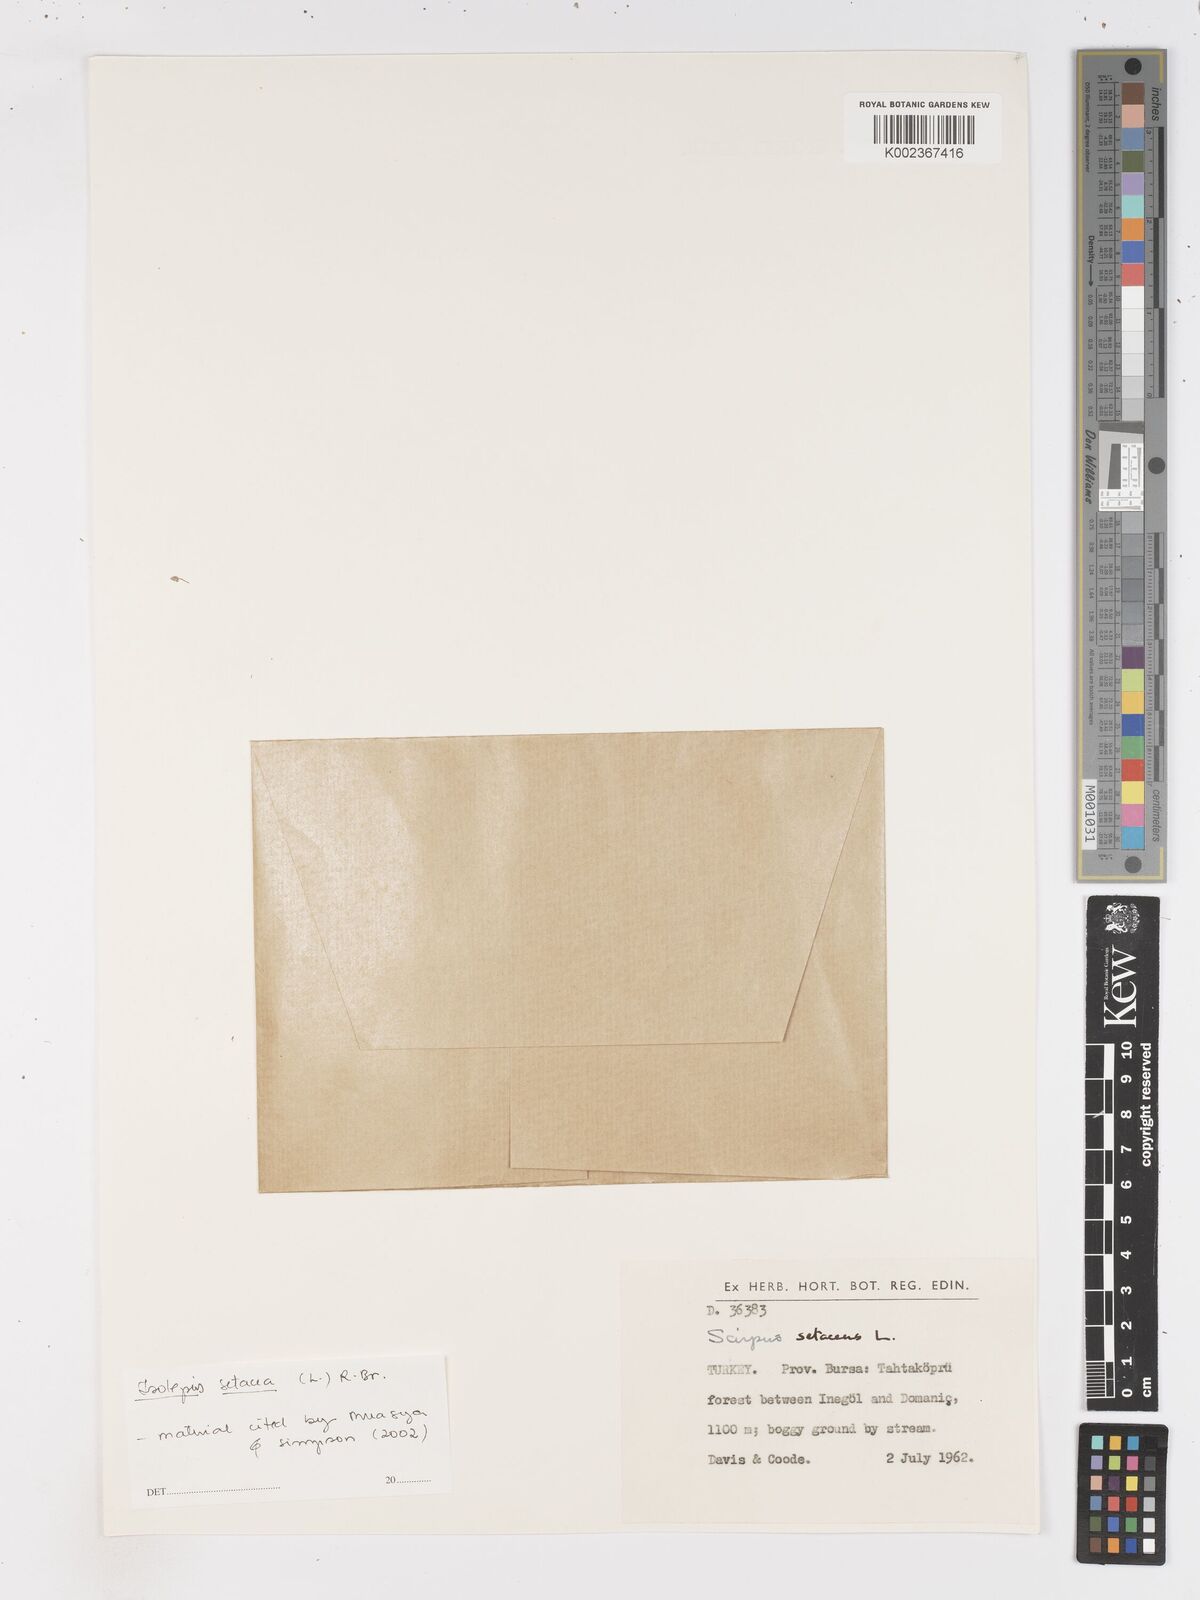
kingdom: Plantae
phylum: Tracheophyta
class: Liliopsida
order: Poales
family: Cyperaceae
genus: Isolepis
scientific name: Isolepis setacea
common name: Bristle club-rush
